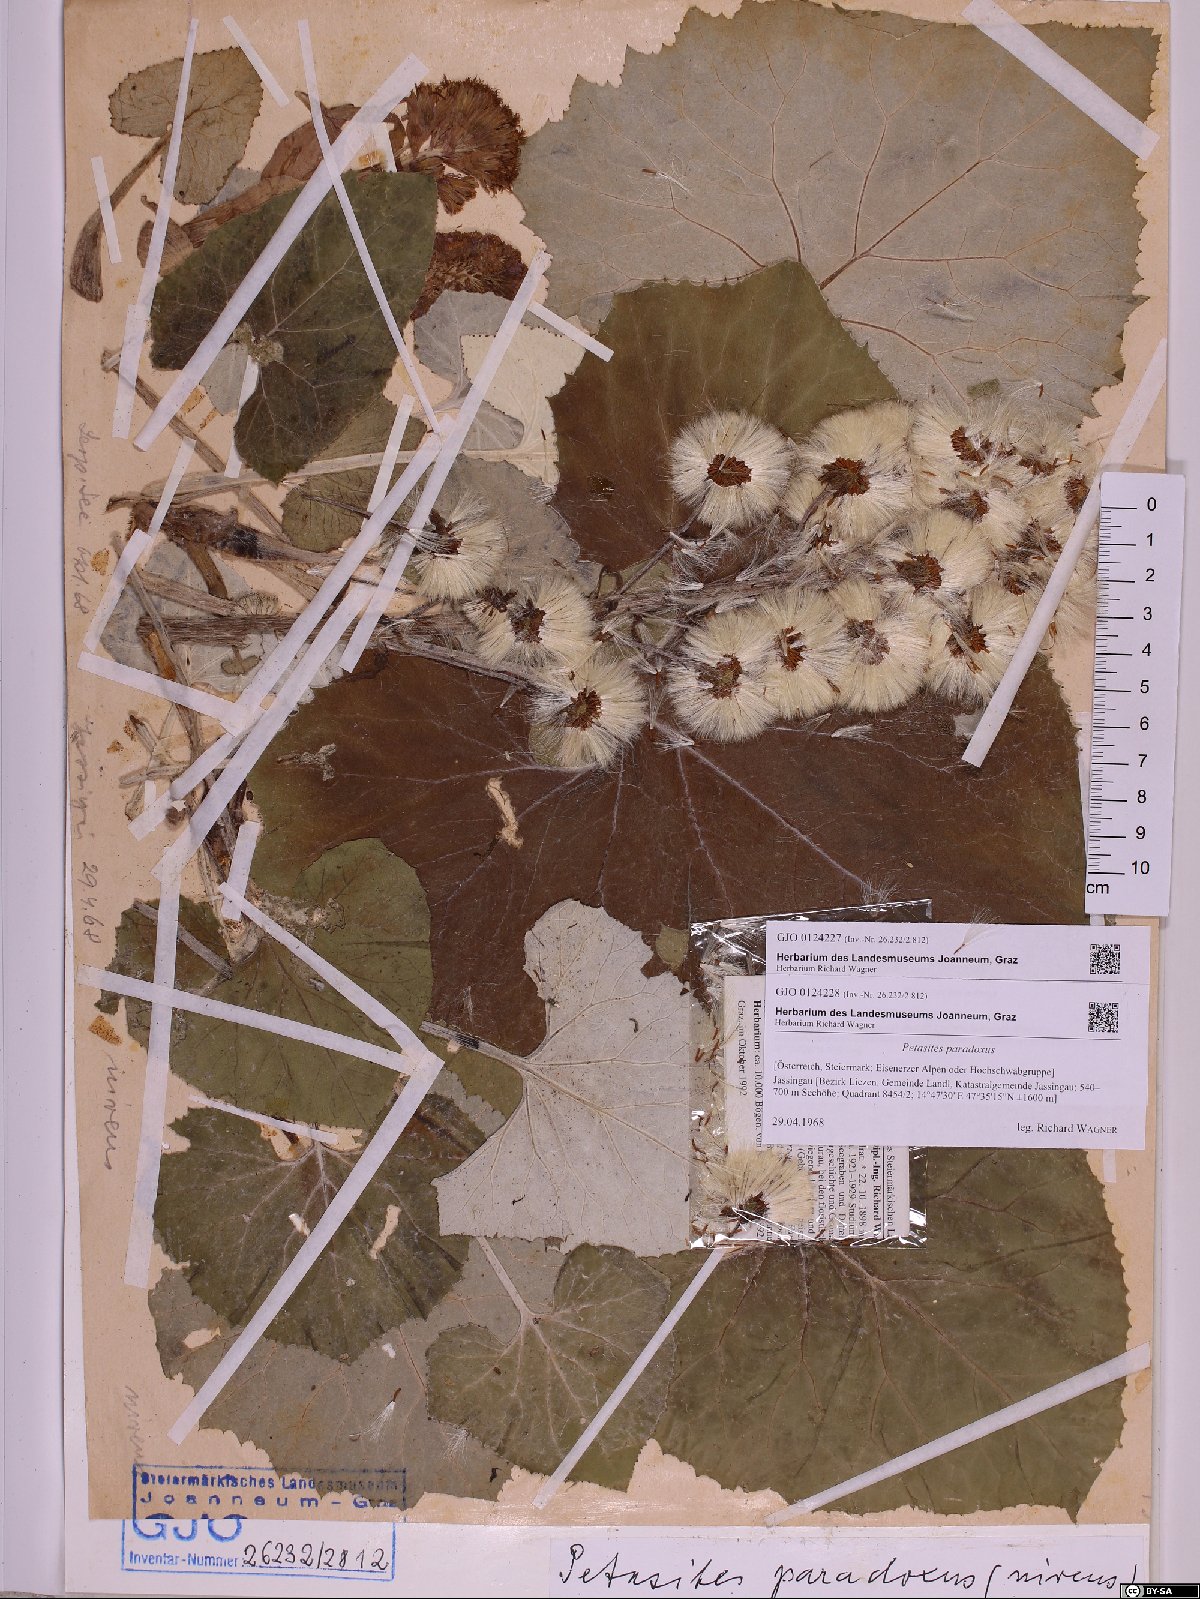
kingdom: Plantae
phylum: Tracheophyta
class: Magnoliopsida
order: Asterales
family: Asteraceae
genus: Petasites
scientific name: Petasites paradoxus
